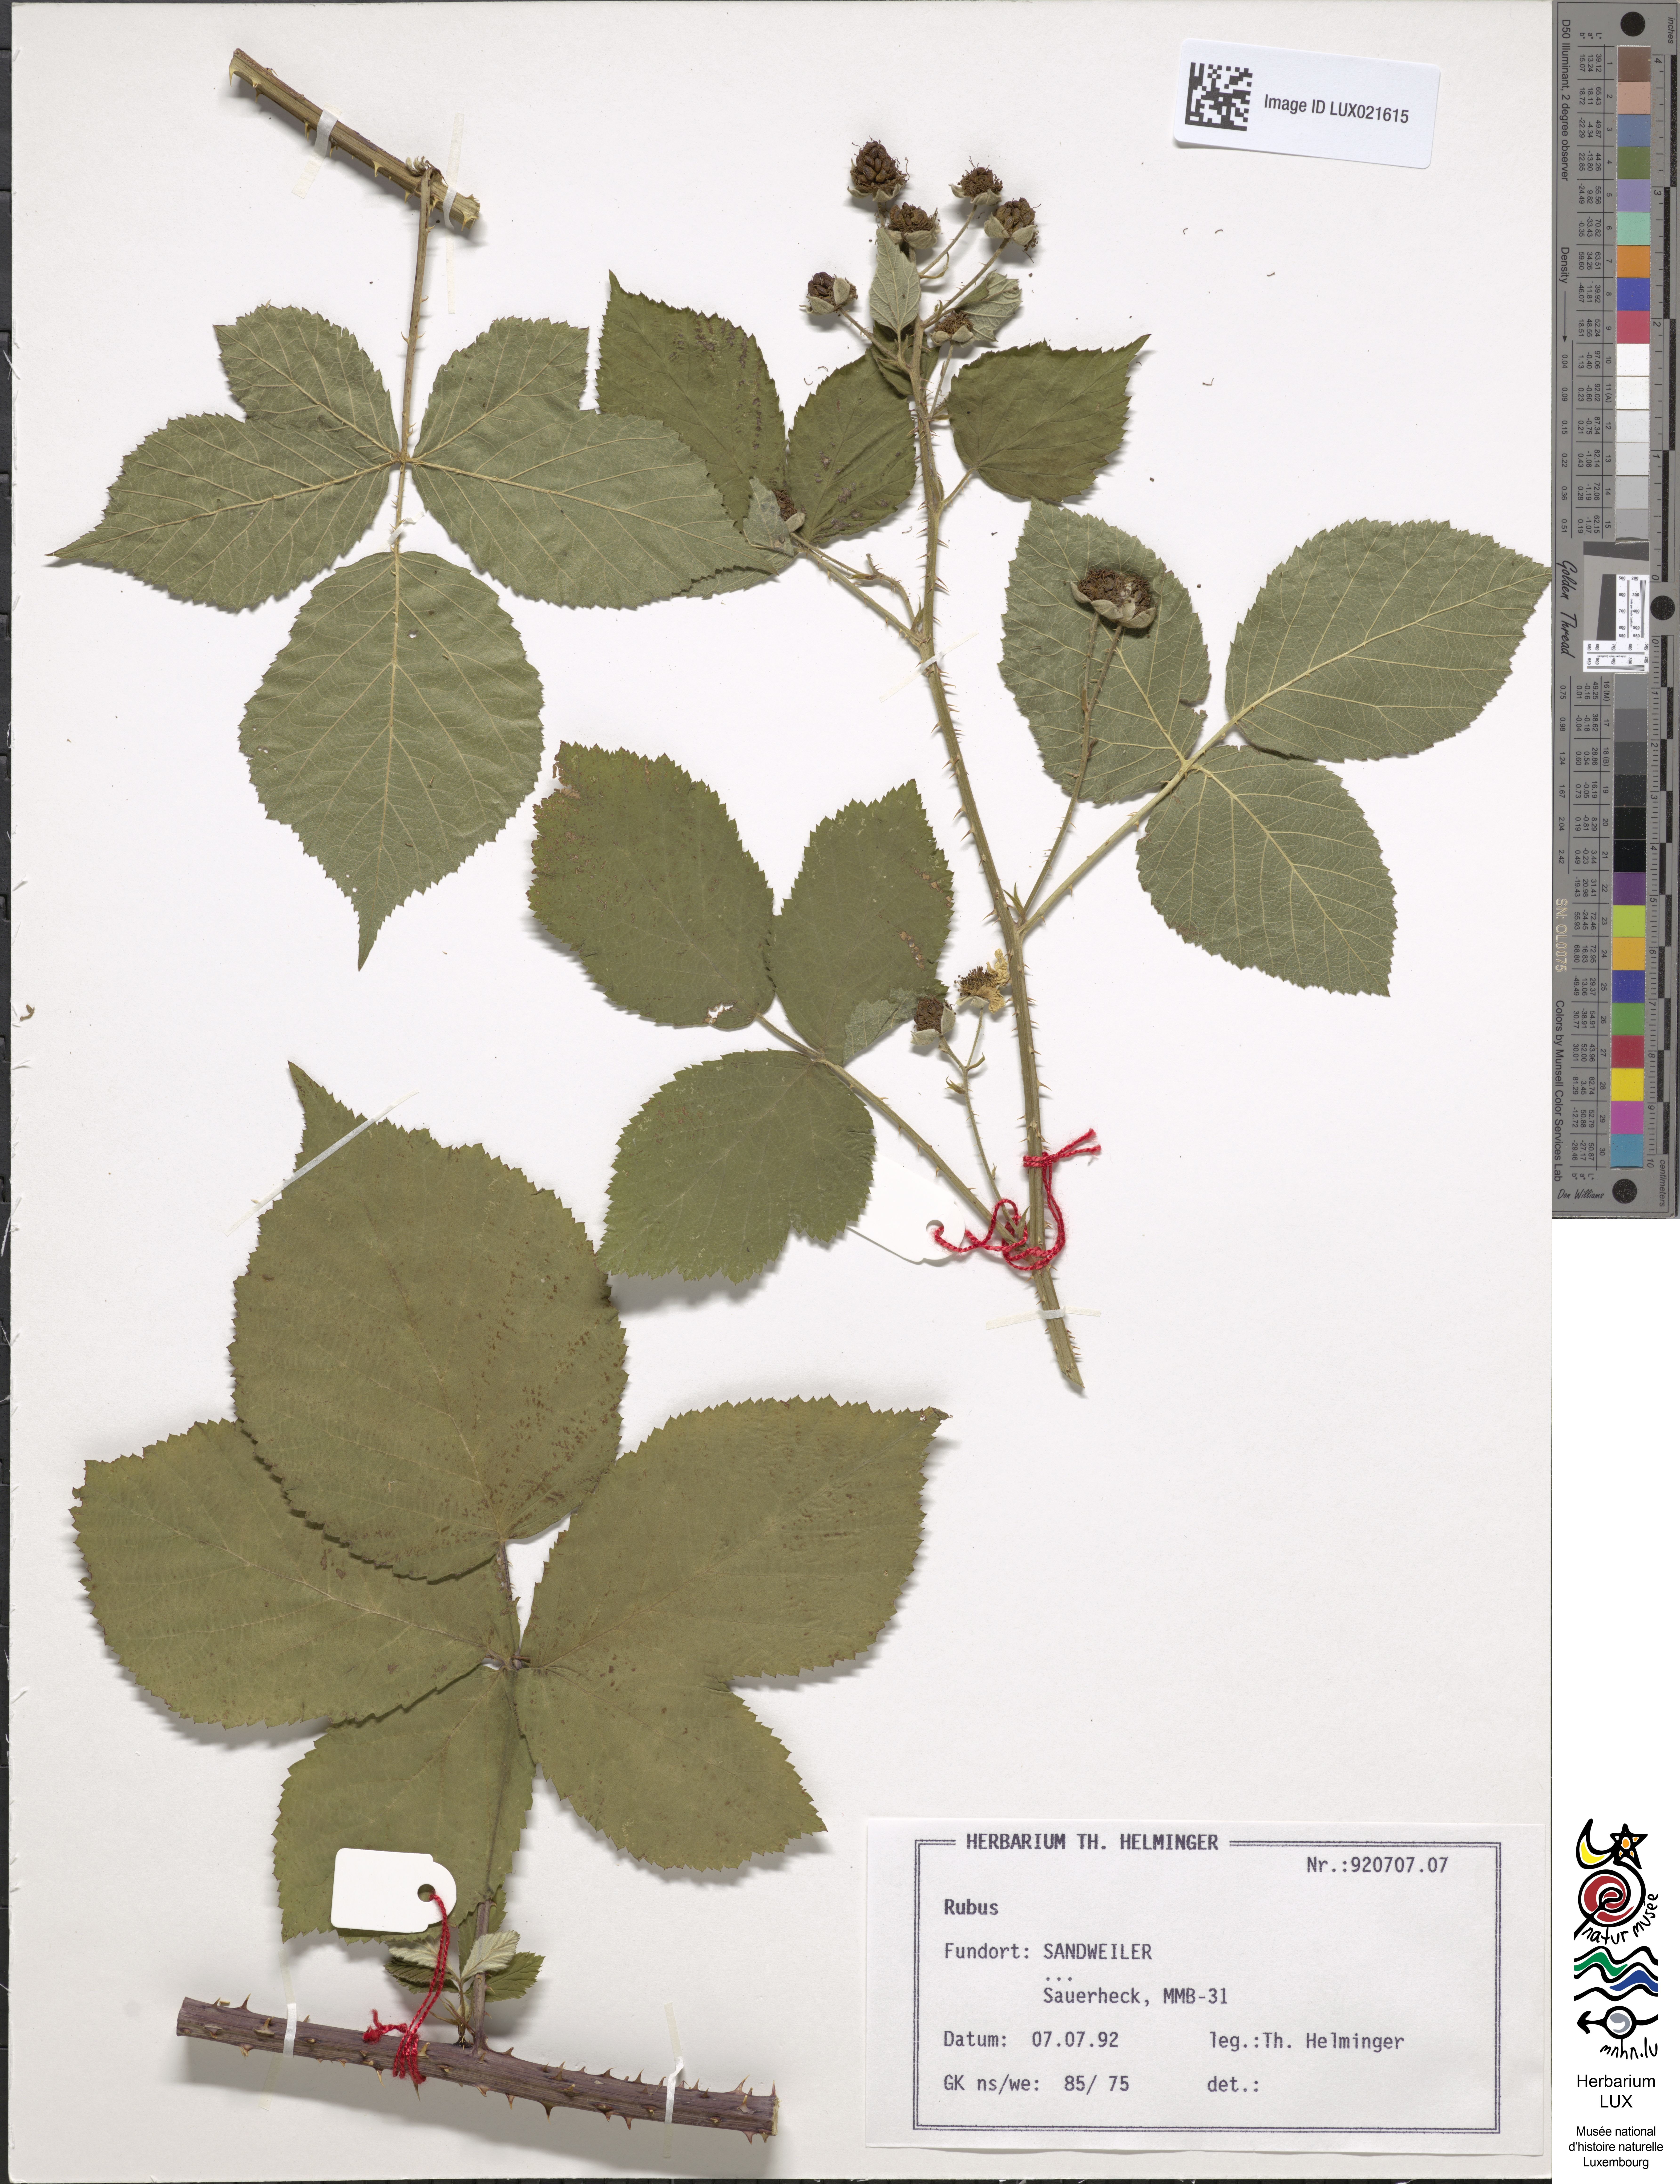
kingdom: Plantae
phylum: Tracheophyta
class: Magnoliopsida
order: Rosales
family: Rosaceae
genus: Rubus
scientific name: Rubus
